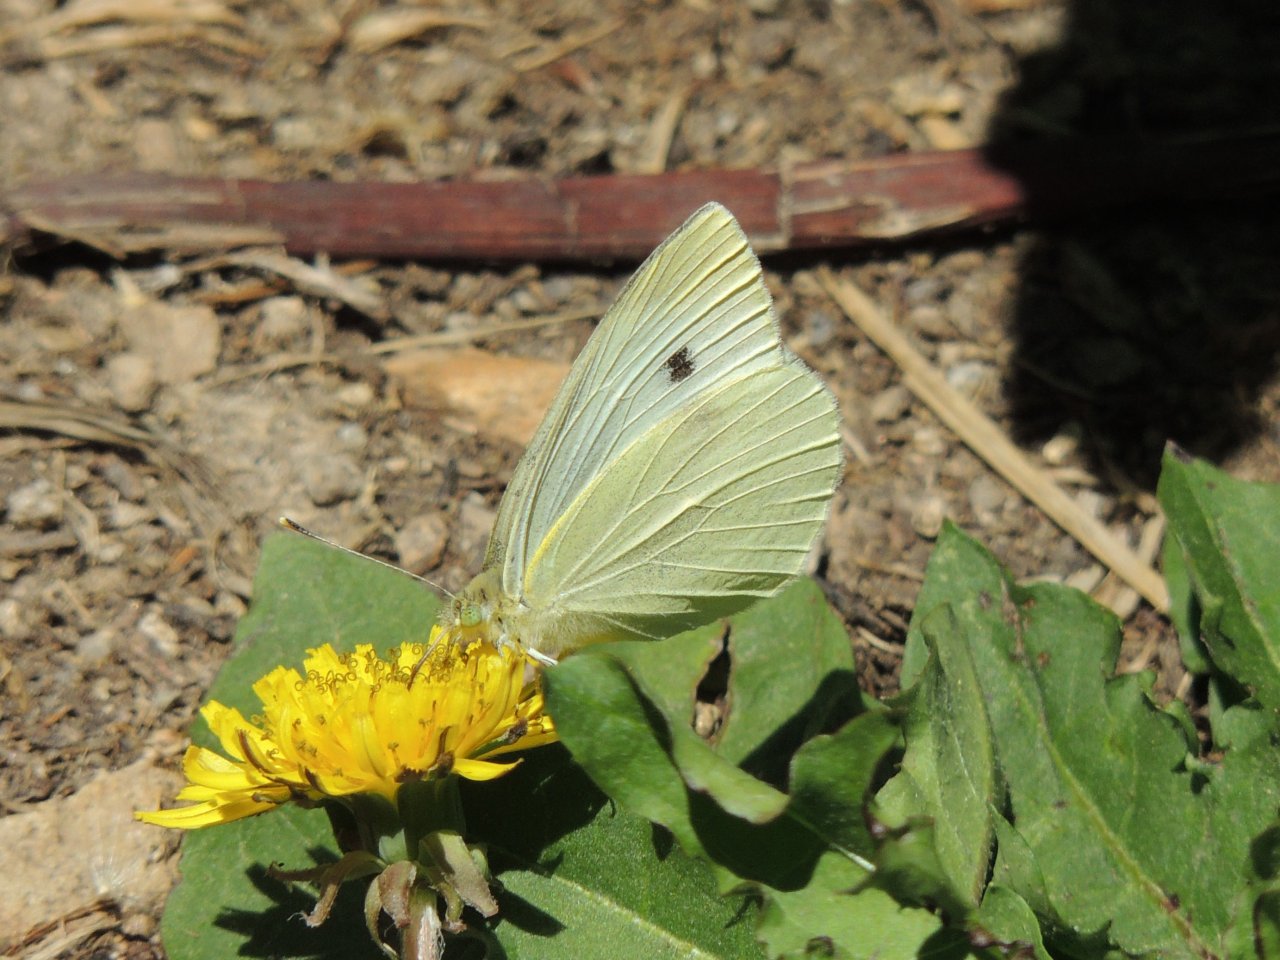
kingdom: Animalia
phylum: Arthropoda
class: Insecta
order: Lepidoptera
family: Pieridae
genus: Pieris
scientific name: Pieris rapae
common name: Cabbage White
